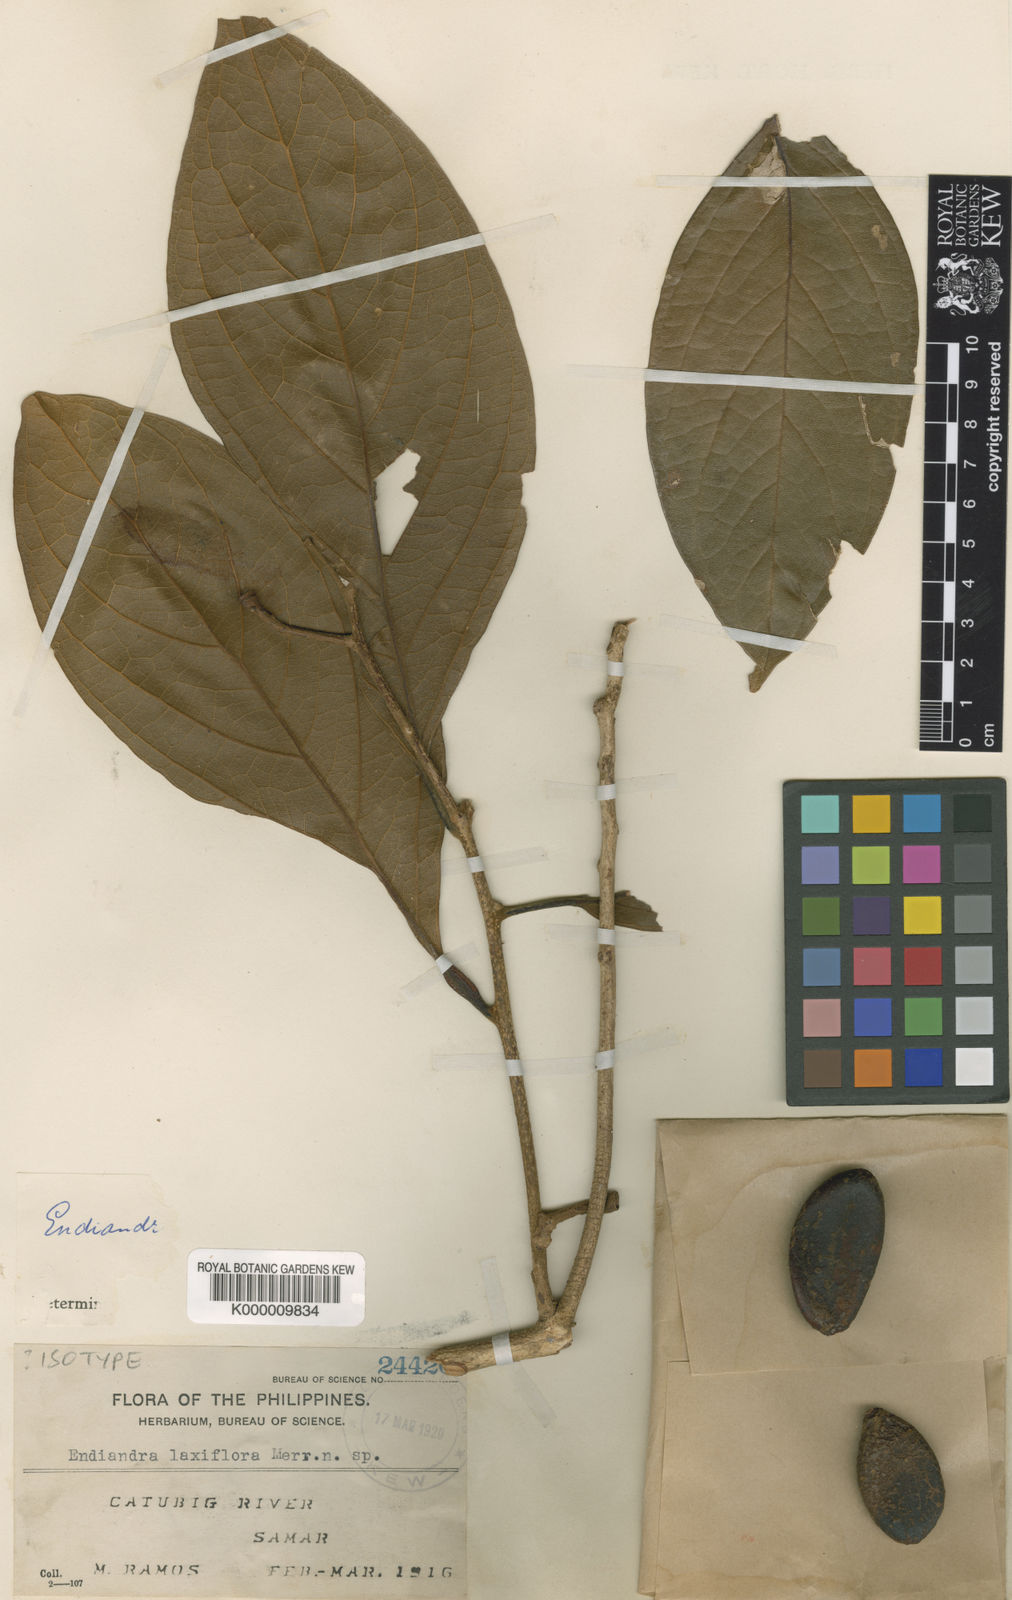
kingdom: Plantae
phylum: Tracheophyta
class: Magnoliopsida
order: Laurales
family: Lauraceae
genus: Endiandra
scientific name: Endiandra laxiflora
